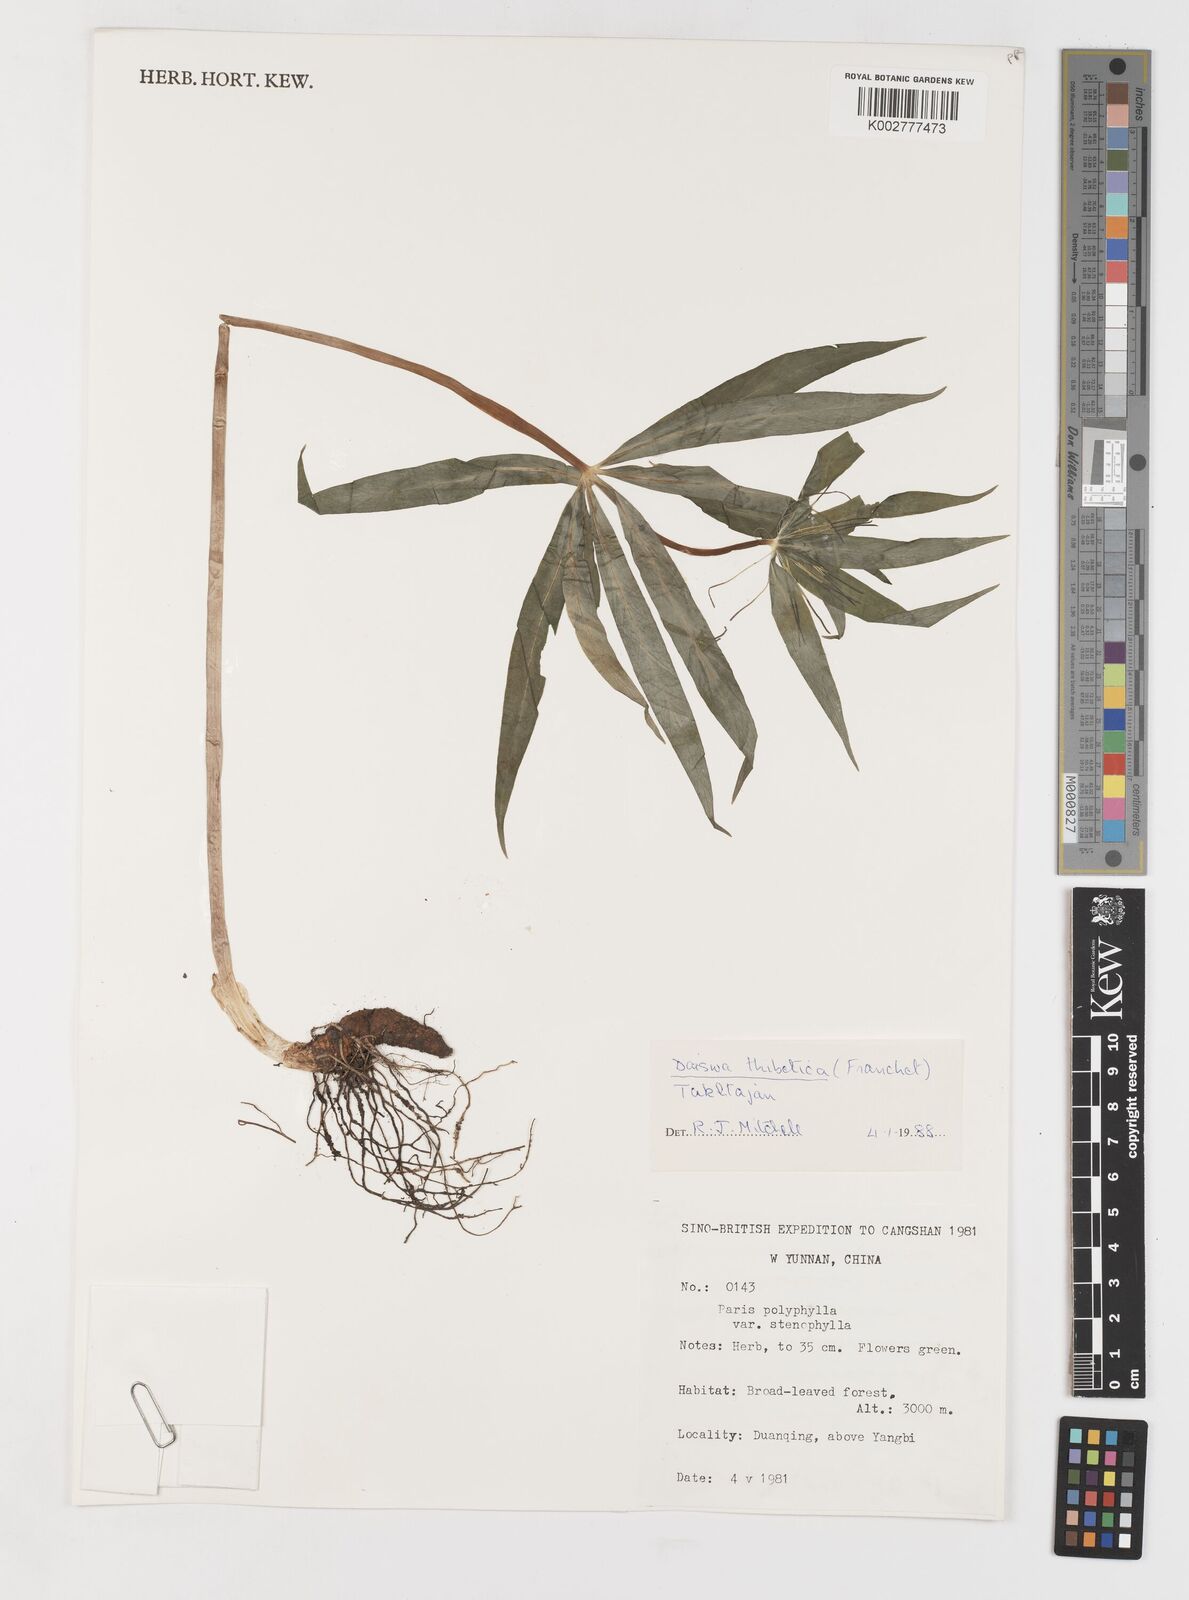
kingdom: Plantae
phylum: Tracheophyta
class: Liliopsida
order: Liliales
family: Melanthiaceae
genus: Paris
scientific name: Paris thibetica
